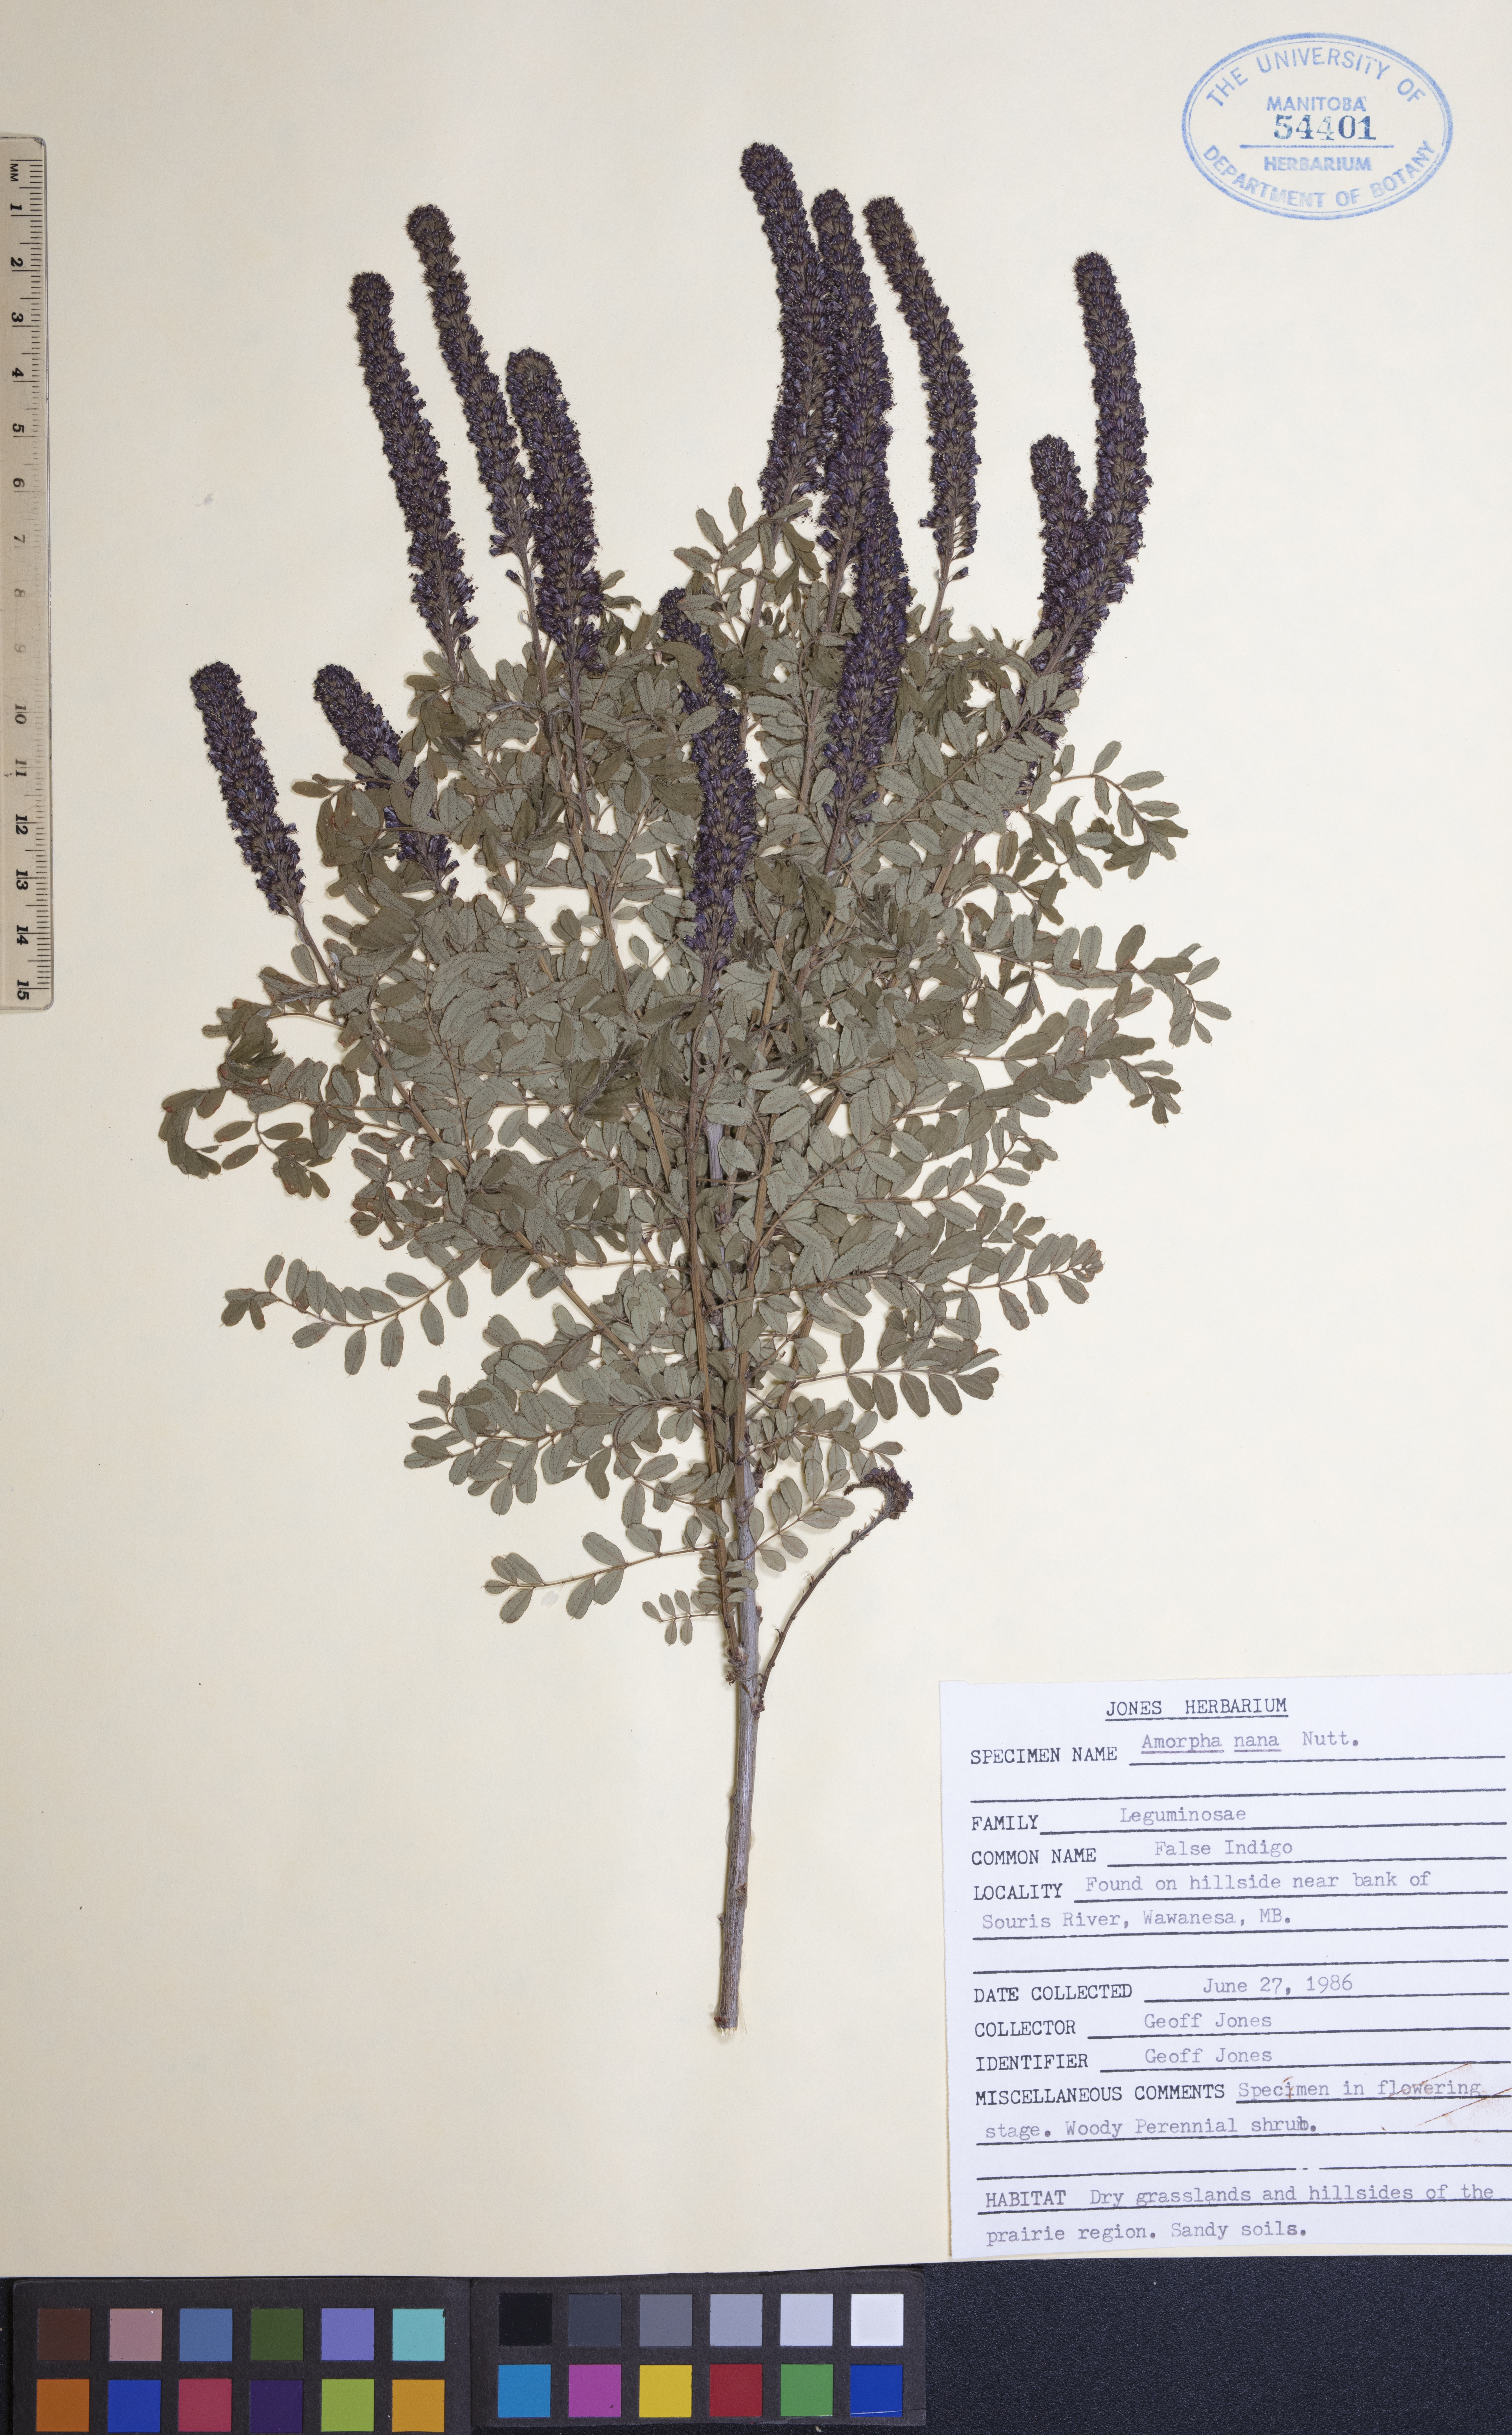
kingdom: Plantae
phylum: Tracheophyta
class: Magnoliopsida
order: Fabales
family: Fabaceae
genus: Amorpha
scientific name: Amorpha nana
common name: Fragrant false indigo
